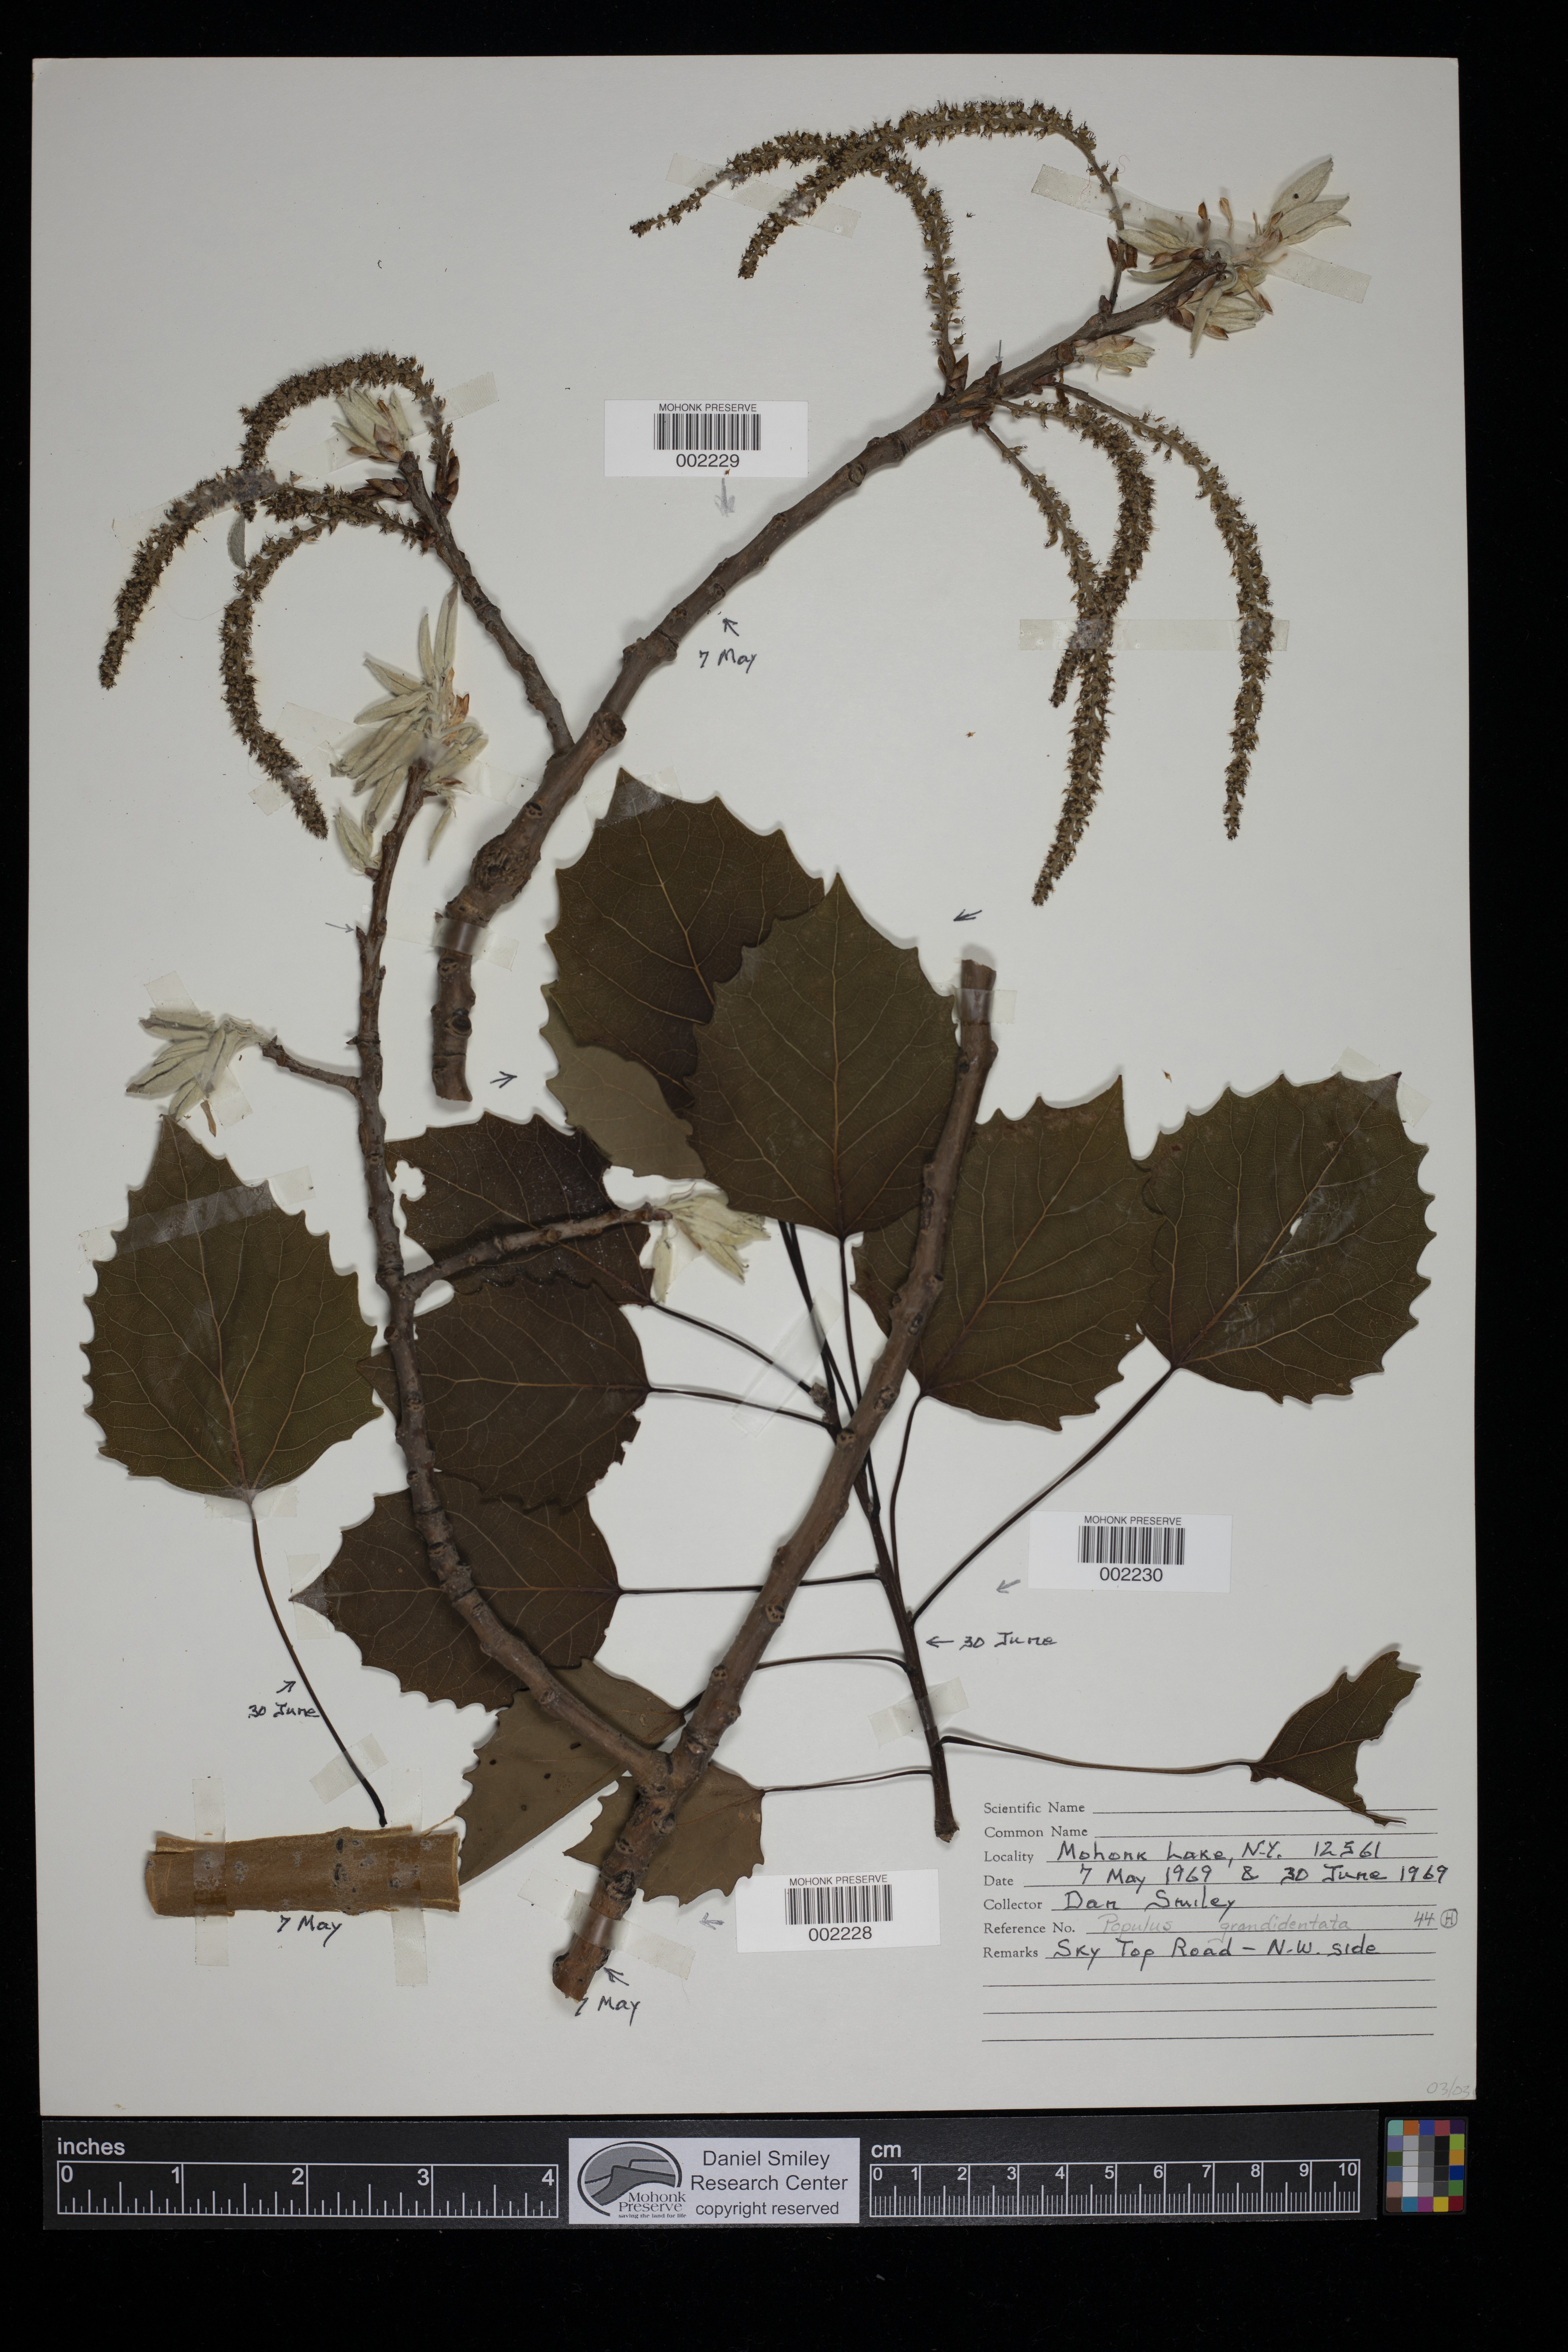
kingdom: Plantae
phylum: Tracheophyta
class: Magnoliopsida
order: Malpighiales
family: Salicaceae
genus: Populus
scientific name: Populus grandidentata
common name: Bigtooth aspen
